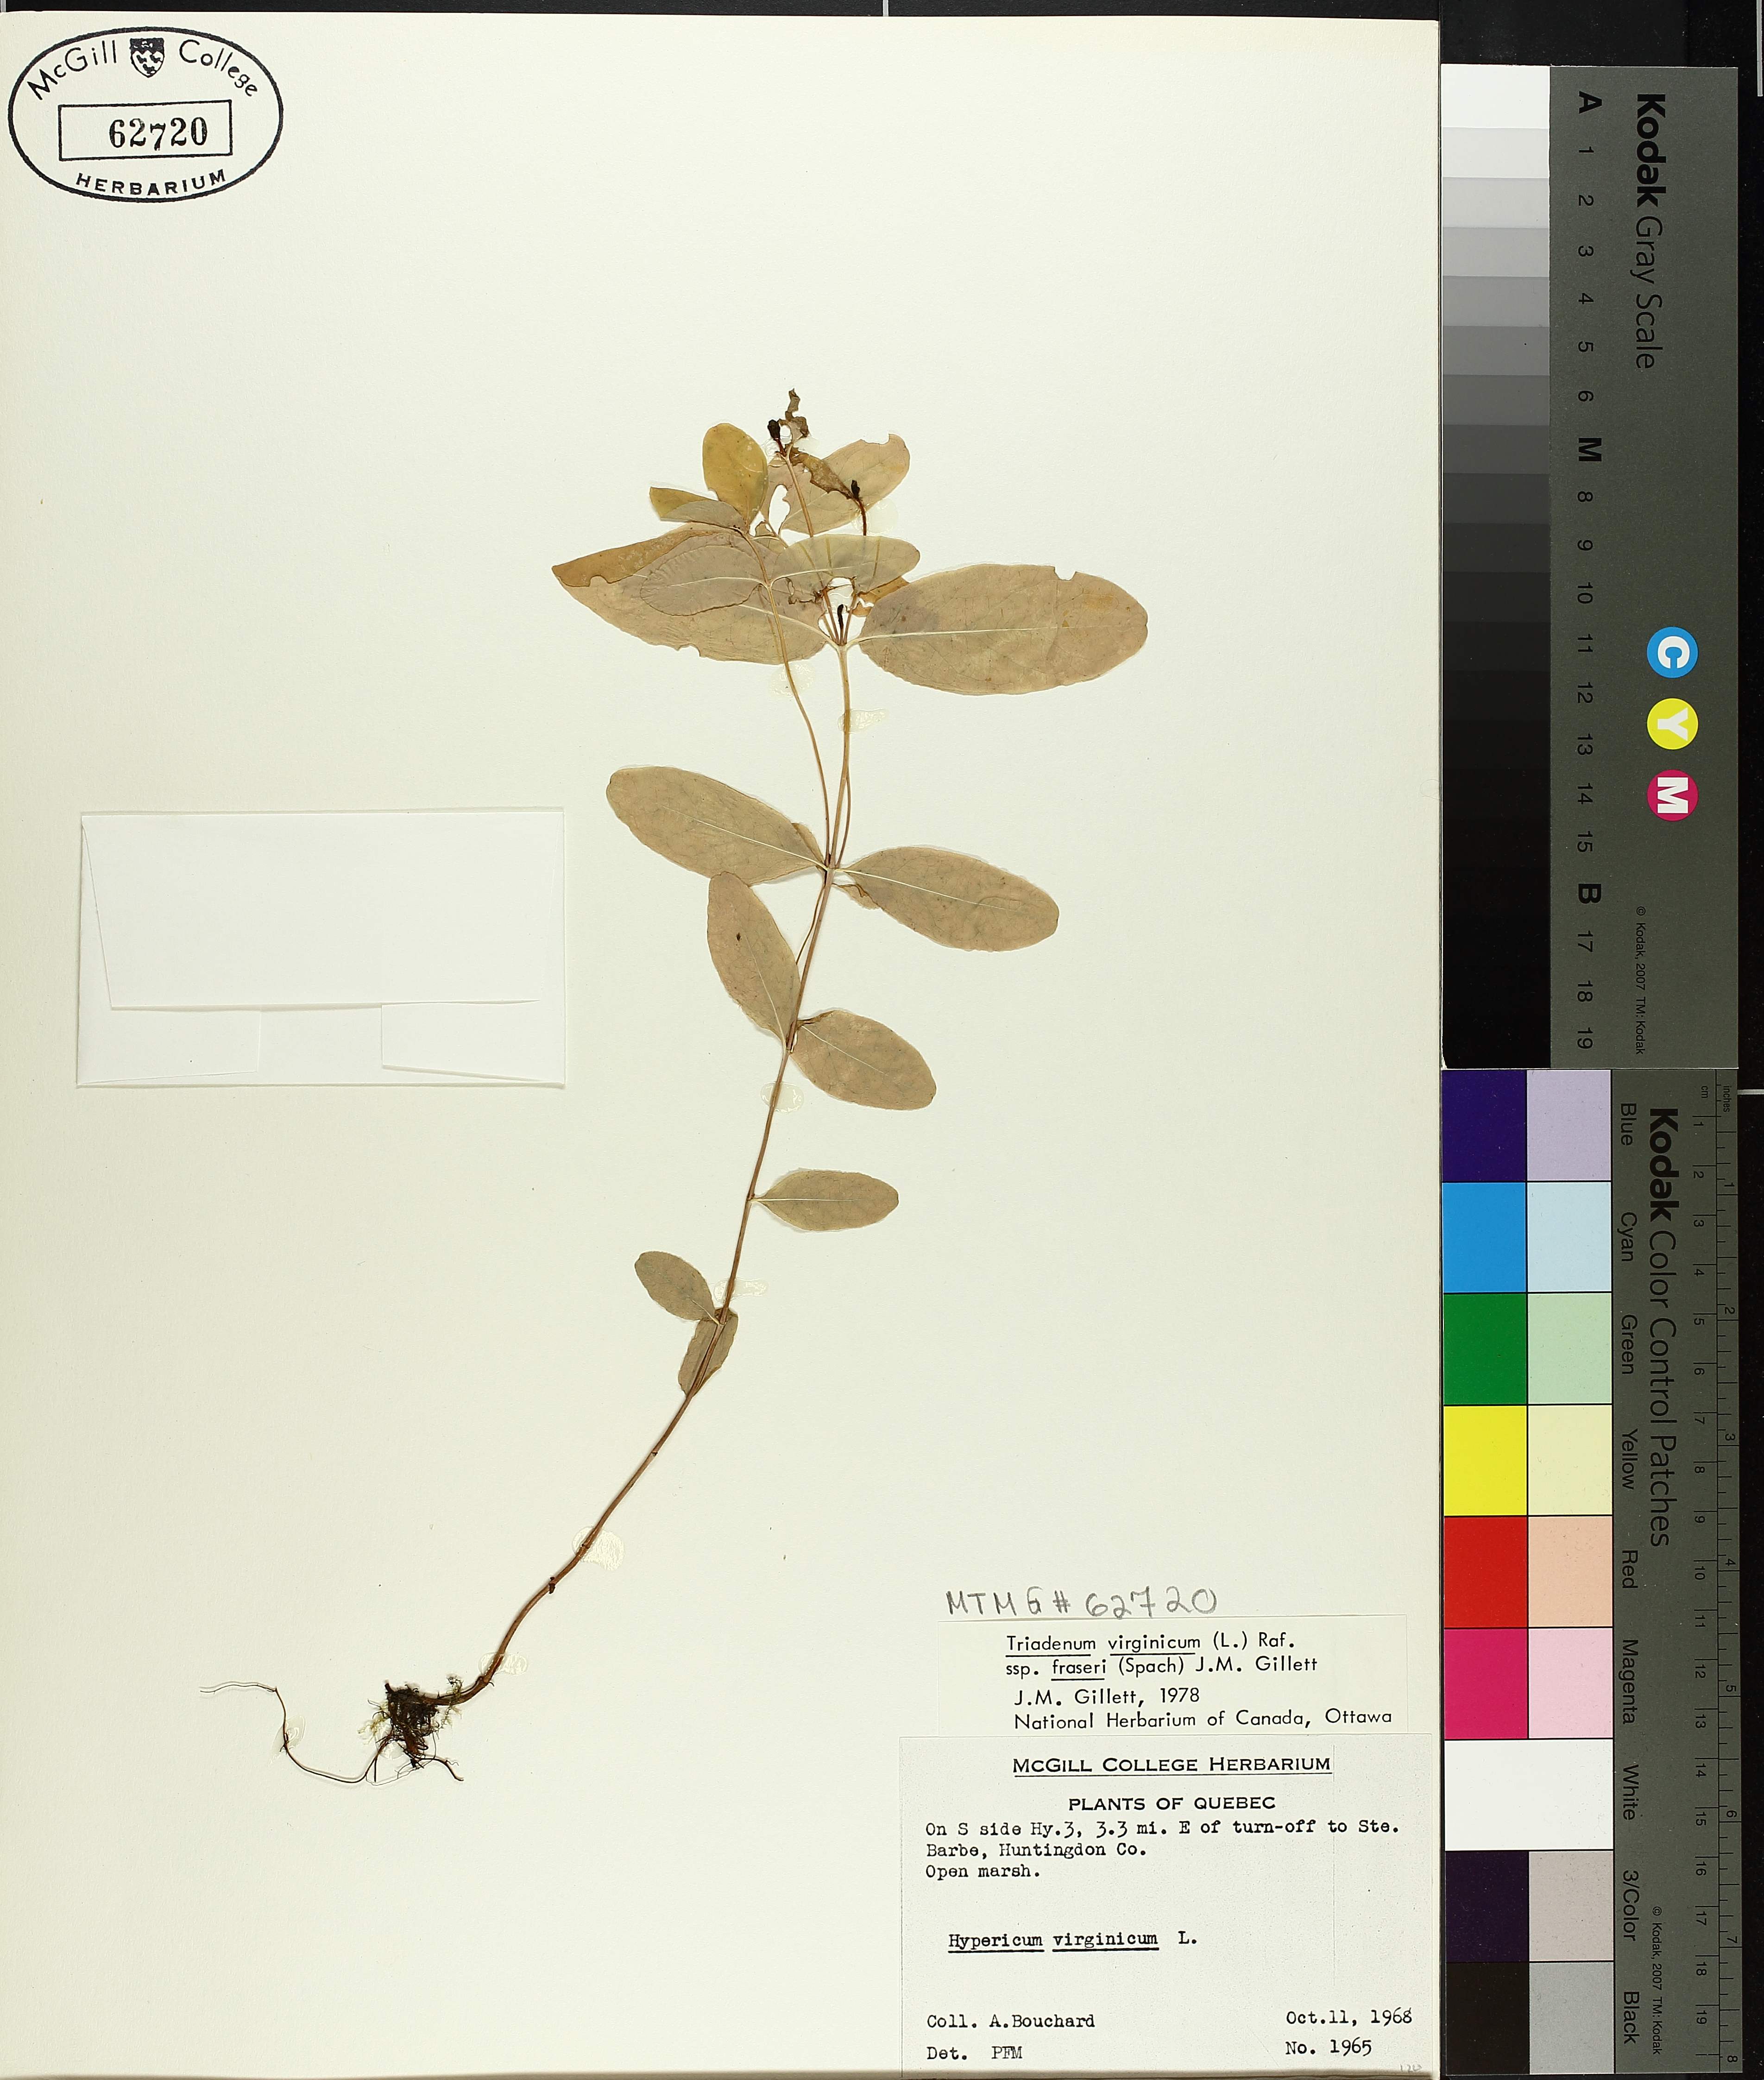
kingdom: Plantae
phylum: Tracheophyta
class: Magnoliopsida
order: Malpighiales
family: Hypericaceae
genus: Triadenum
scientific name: Triadenum fraseri
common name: Fraser's marsh st. johnswort
